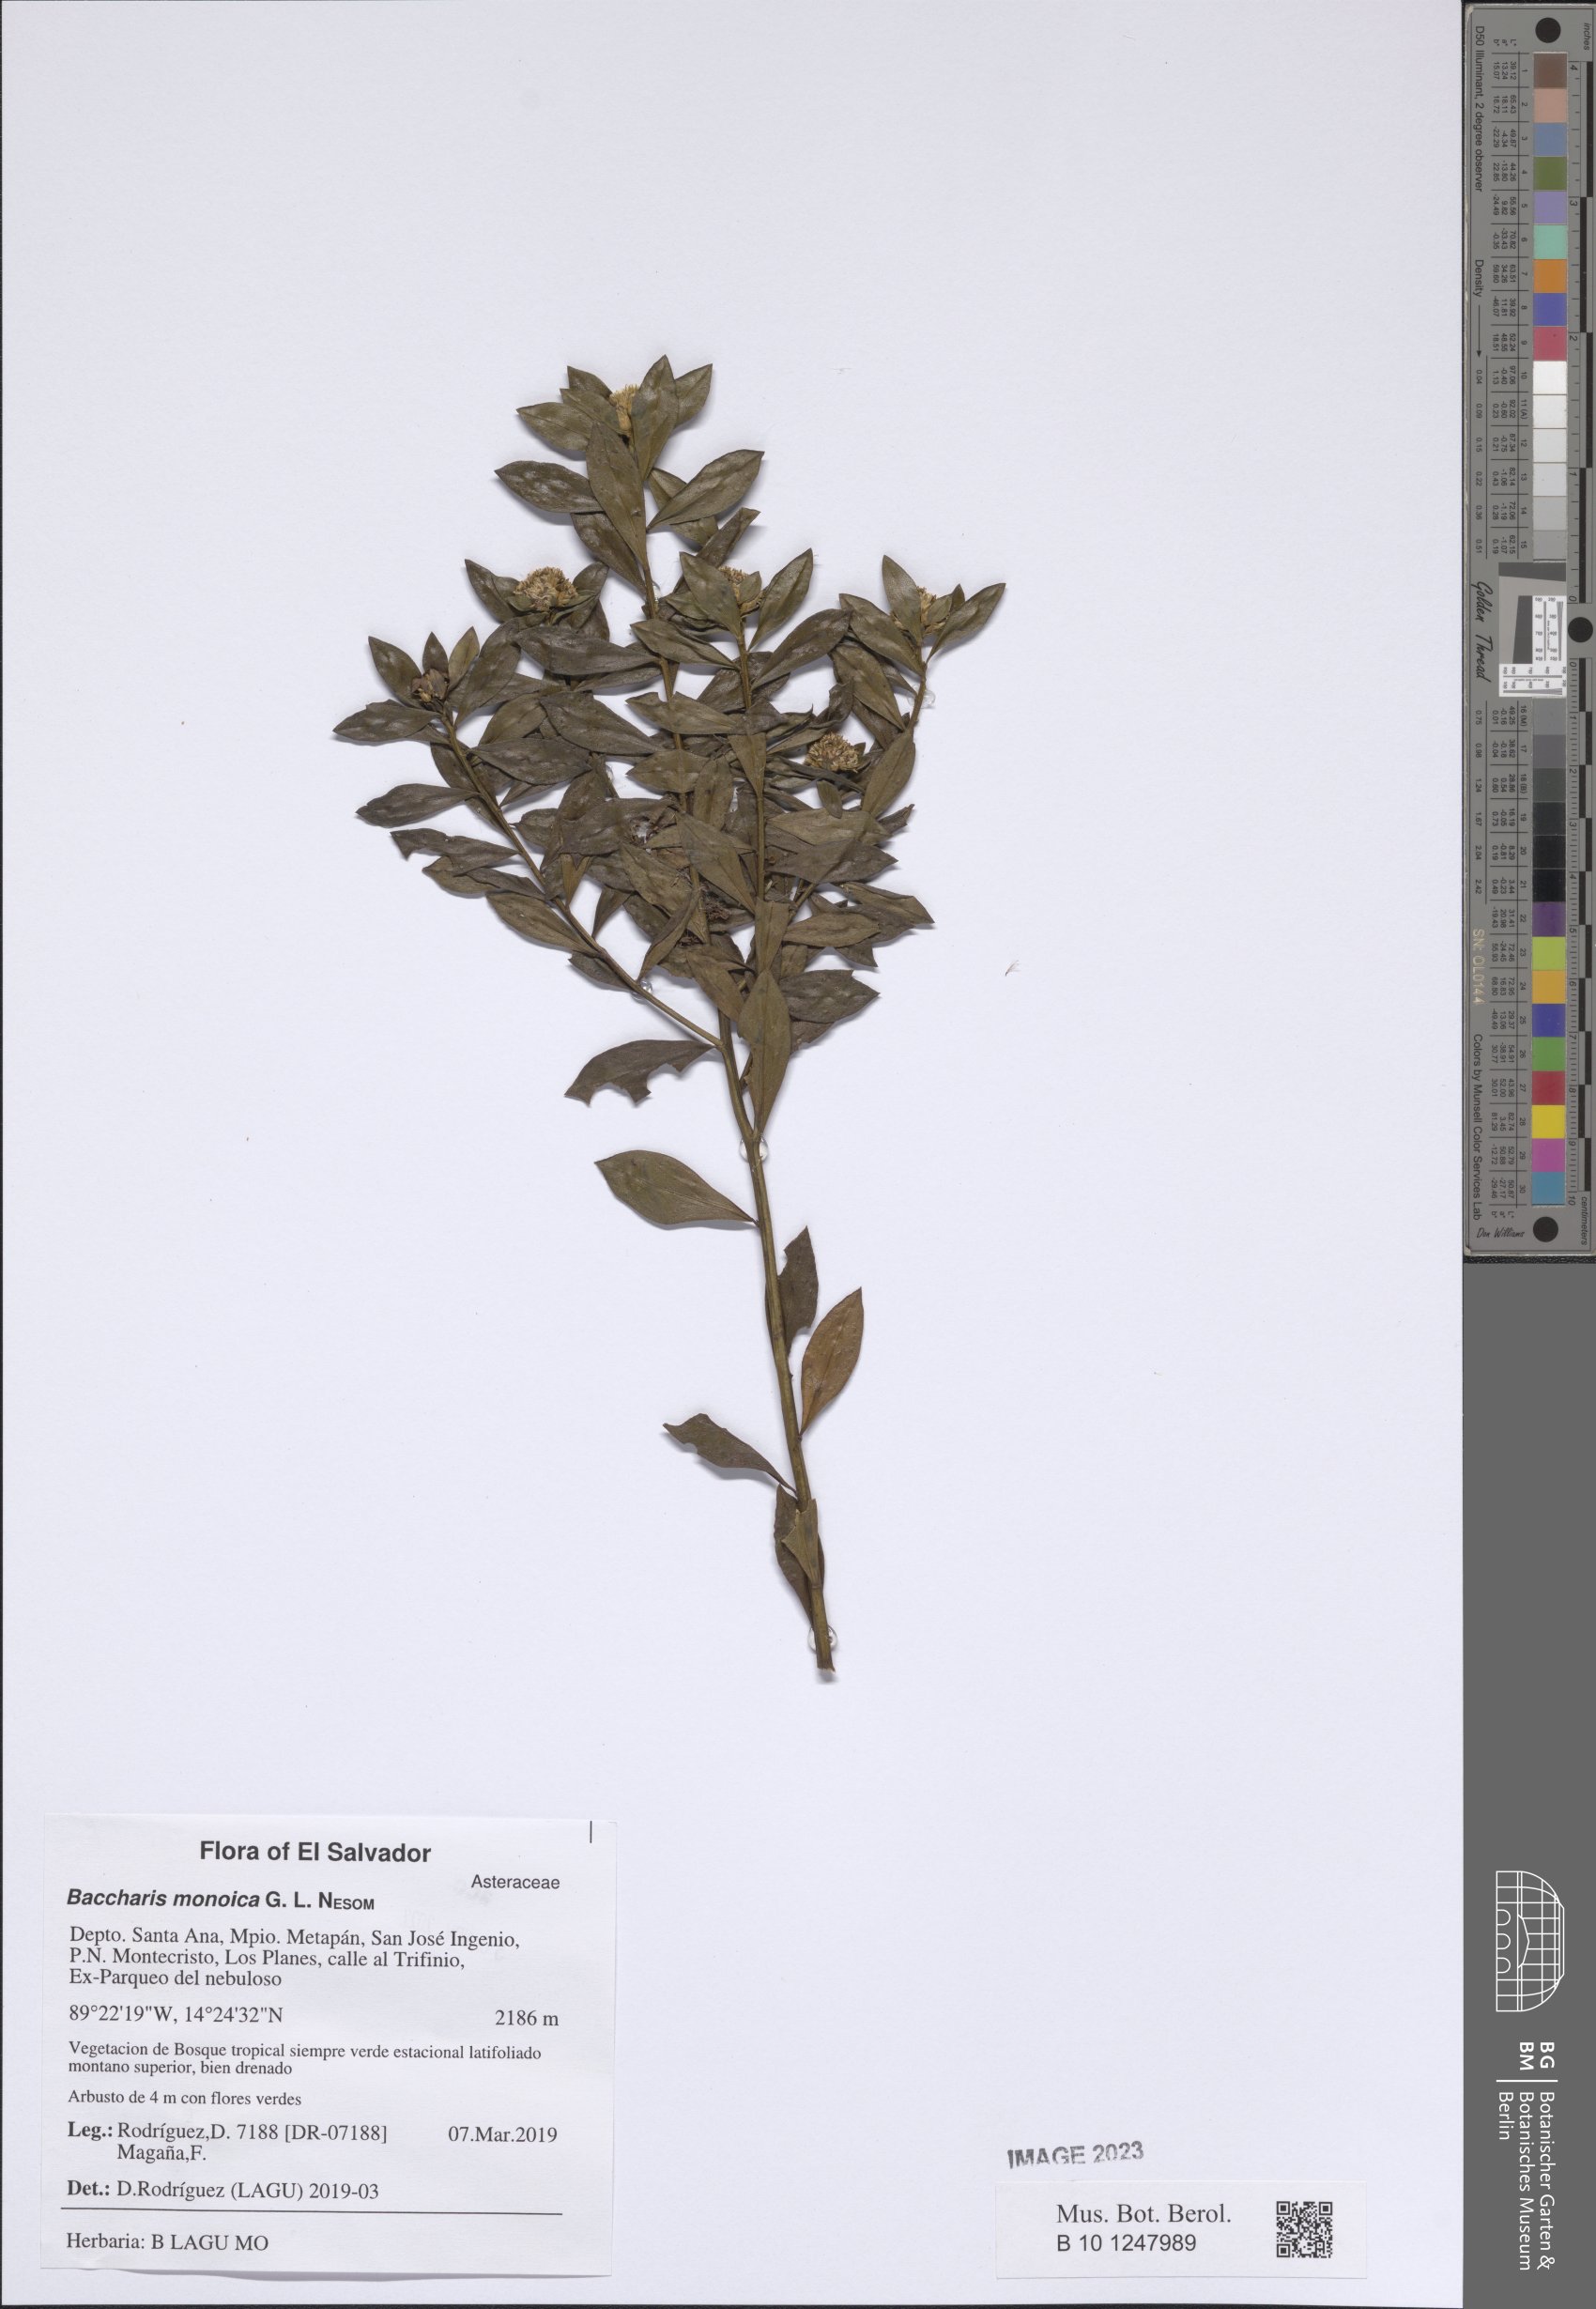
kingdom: Plantae
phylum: Tracheophyta
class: Magnoliopsida
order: Asterales
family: Asteraceae
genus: Baccharis
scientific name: Baccharis lancifolia
